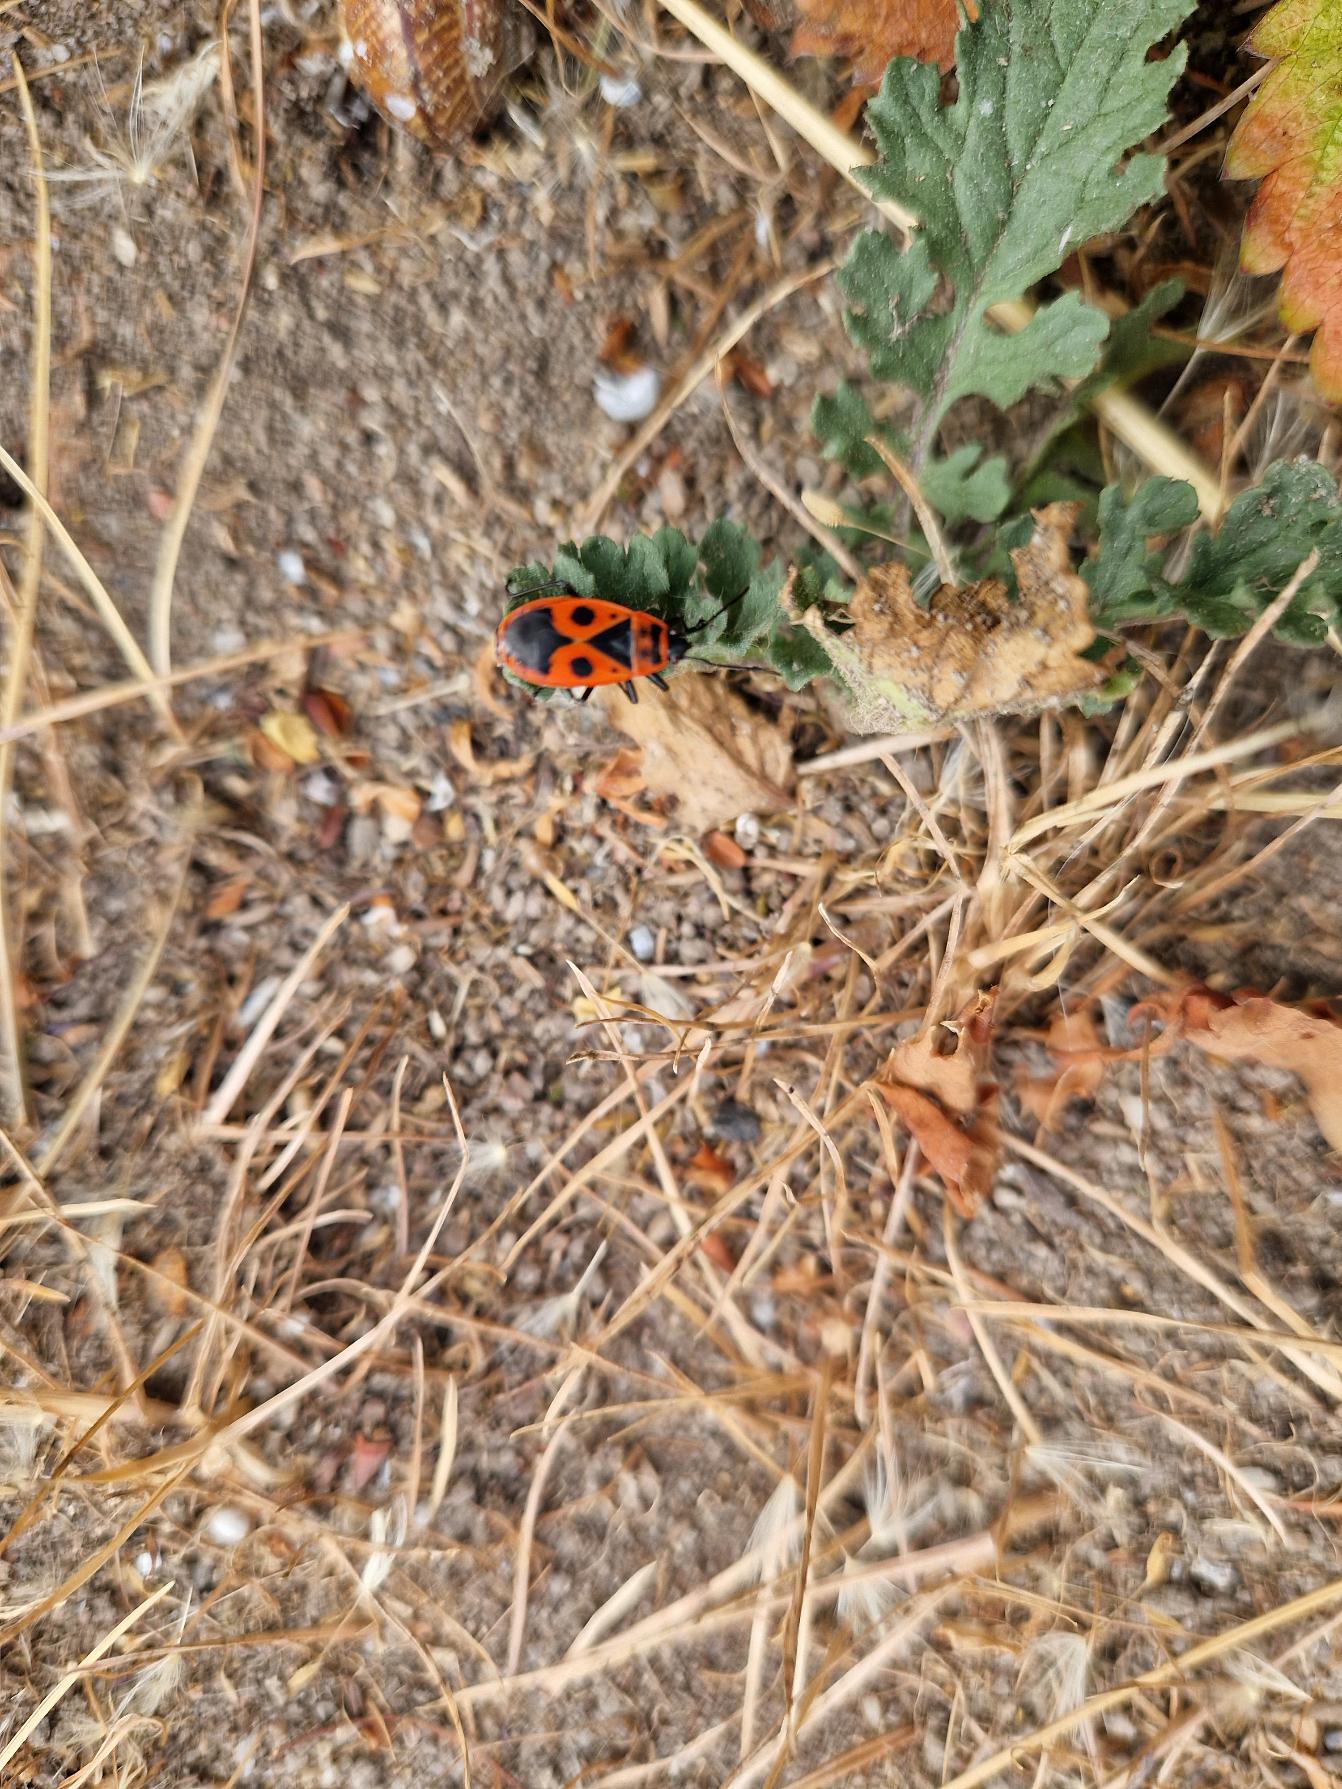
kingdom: Animalia
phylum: Arthropoda
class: Insecta
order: Hemiptera
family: Pyrrhocoridae
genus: Pyrrhocoris
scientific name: Pyrrhocoris apterus
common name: Ildtæge
